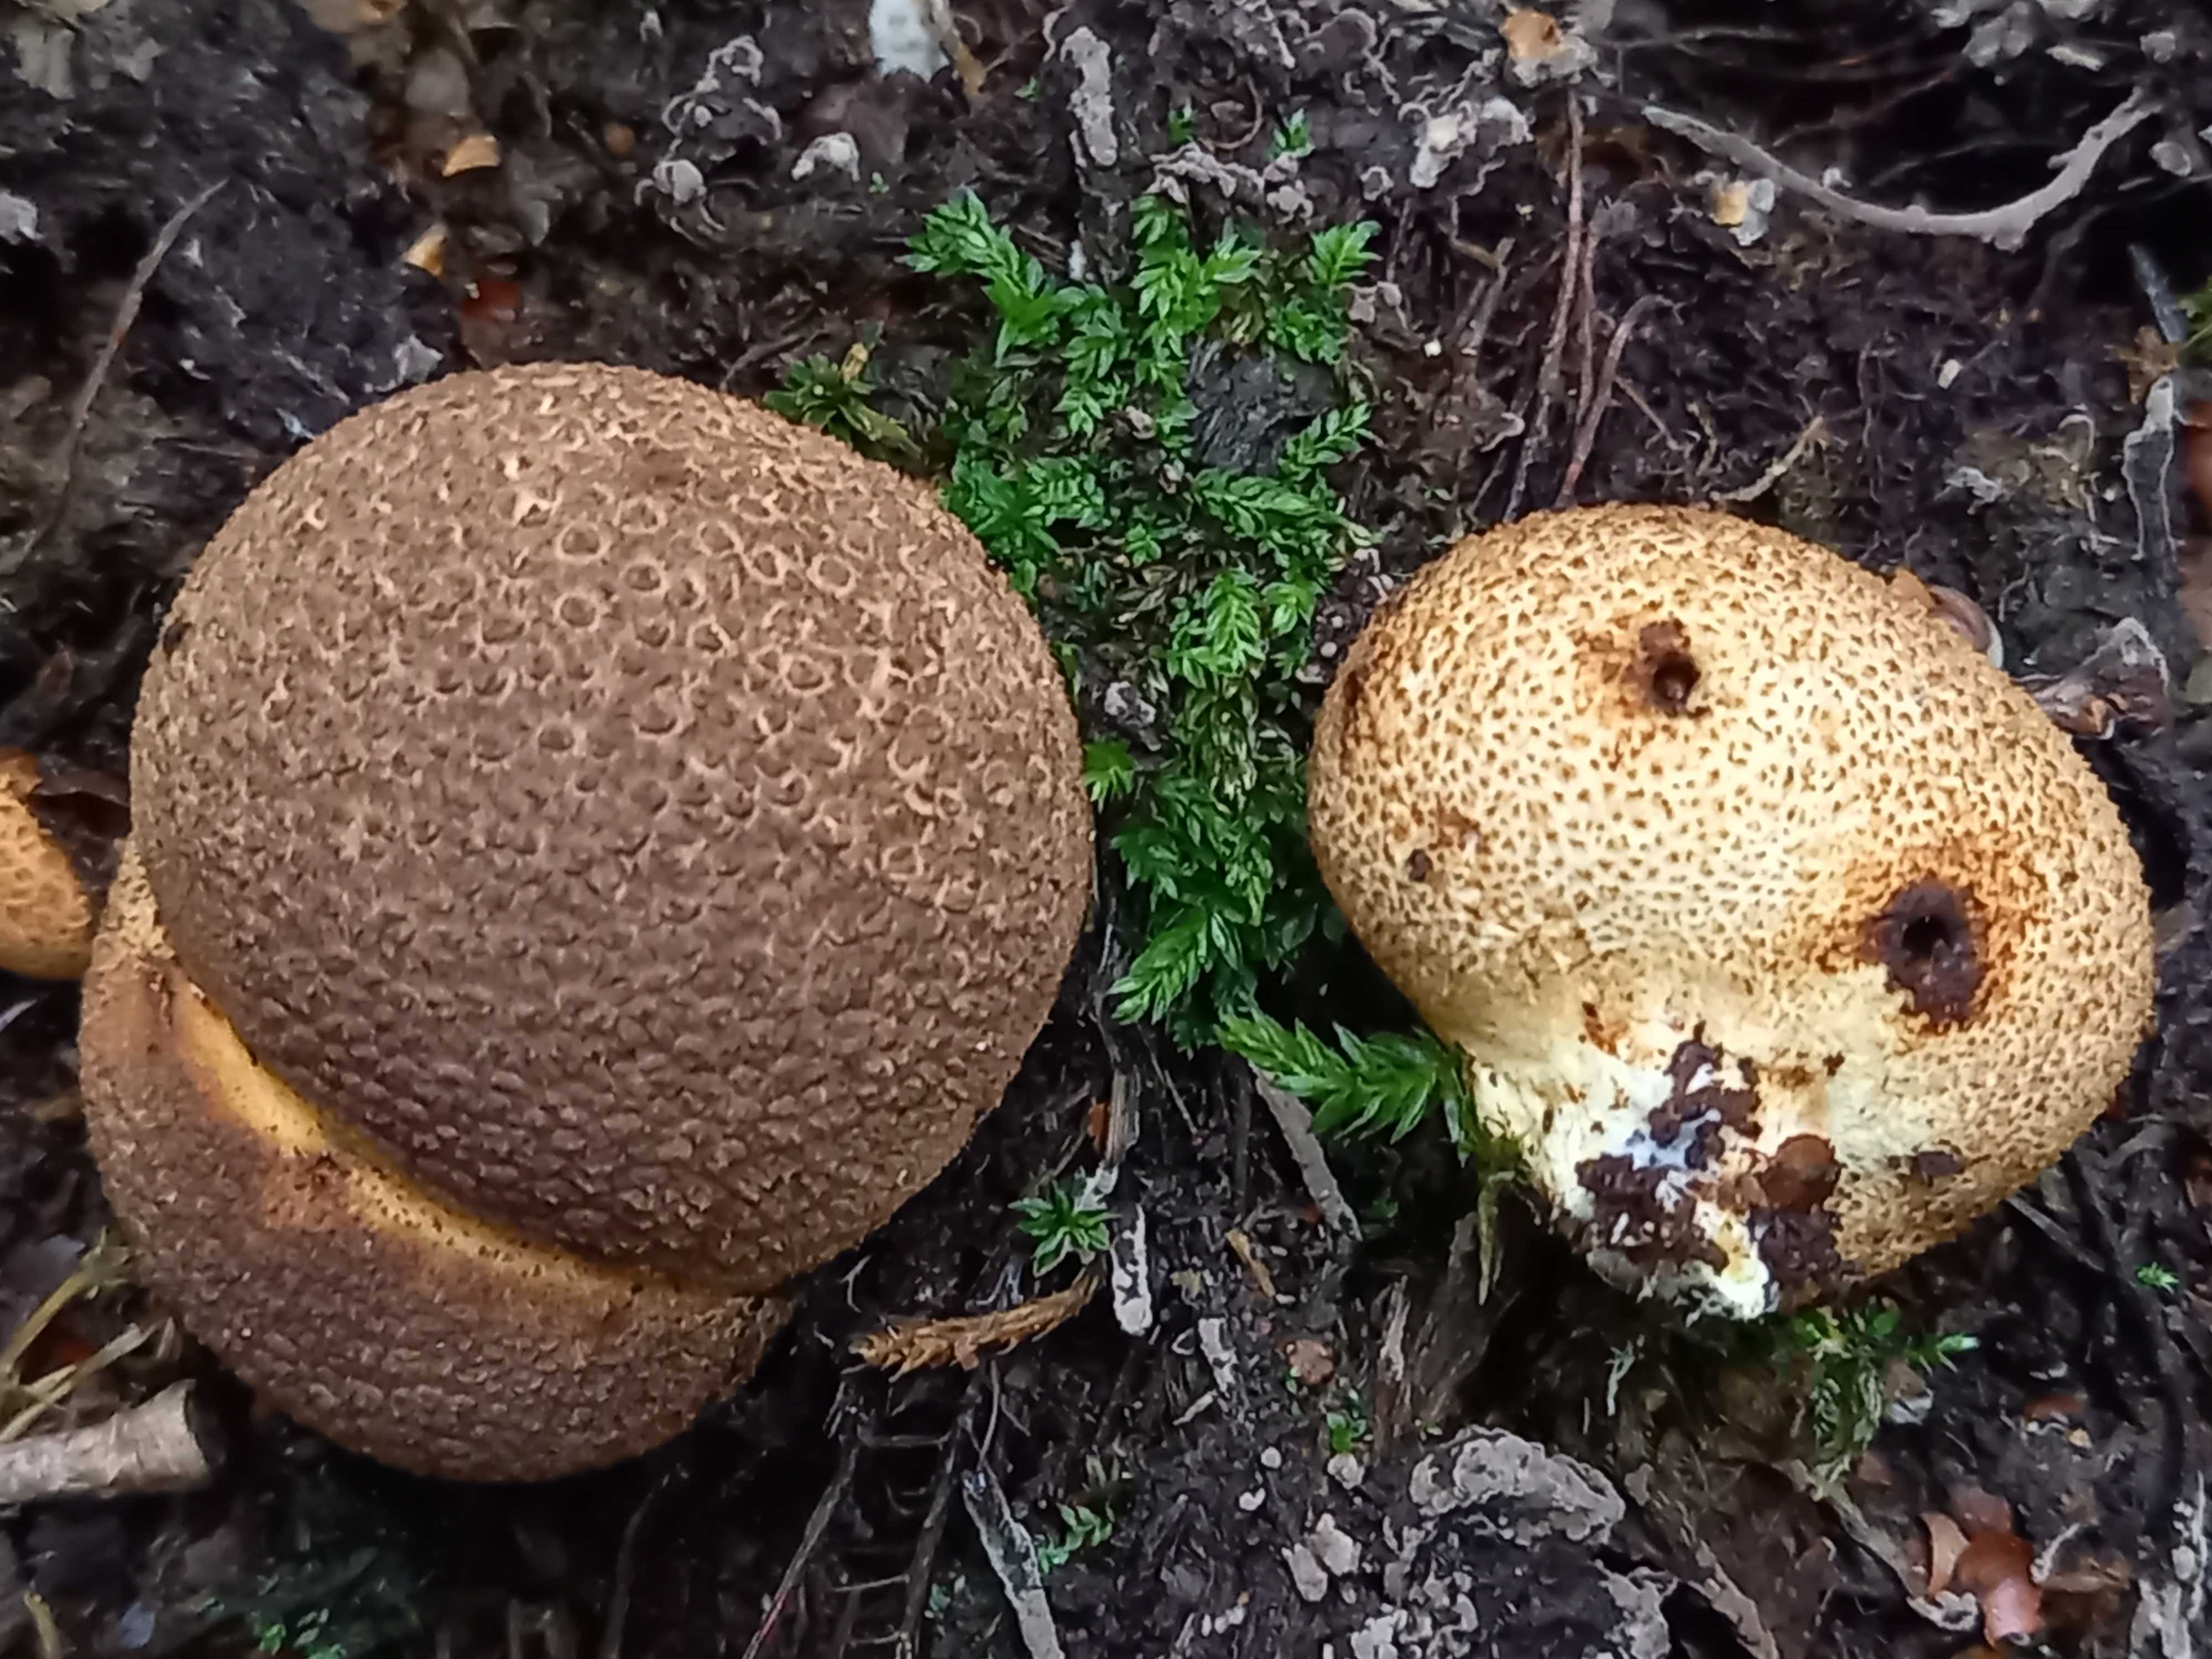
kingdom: Fungi
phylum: Basidiomycota
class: Agaricomycetes
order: Boletales
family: Sclerodermataceae
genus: Scleroderma
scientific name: Scleroderma citrinum
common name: almindelig bruskbold
